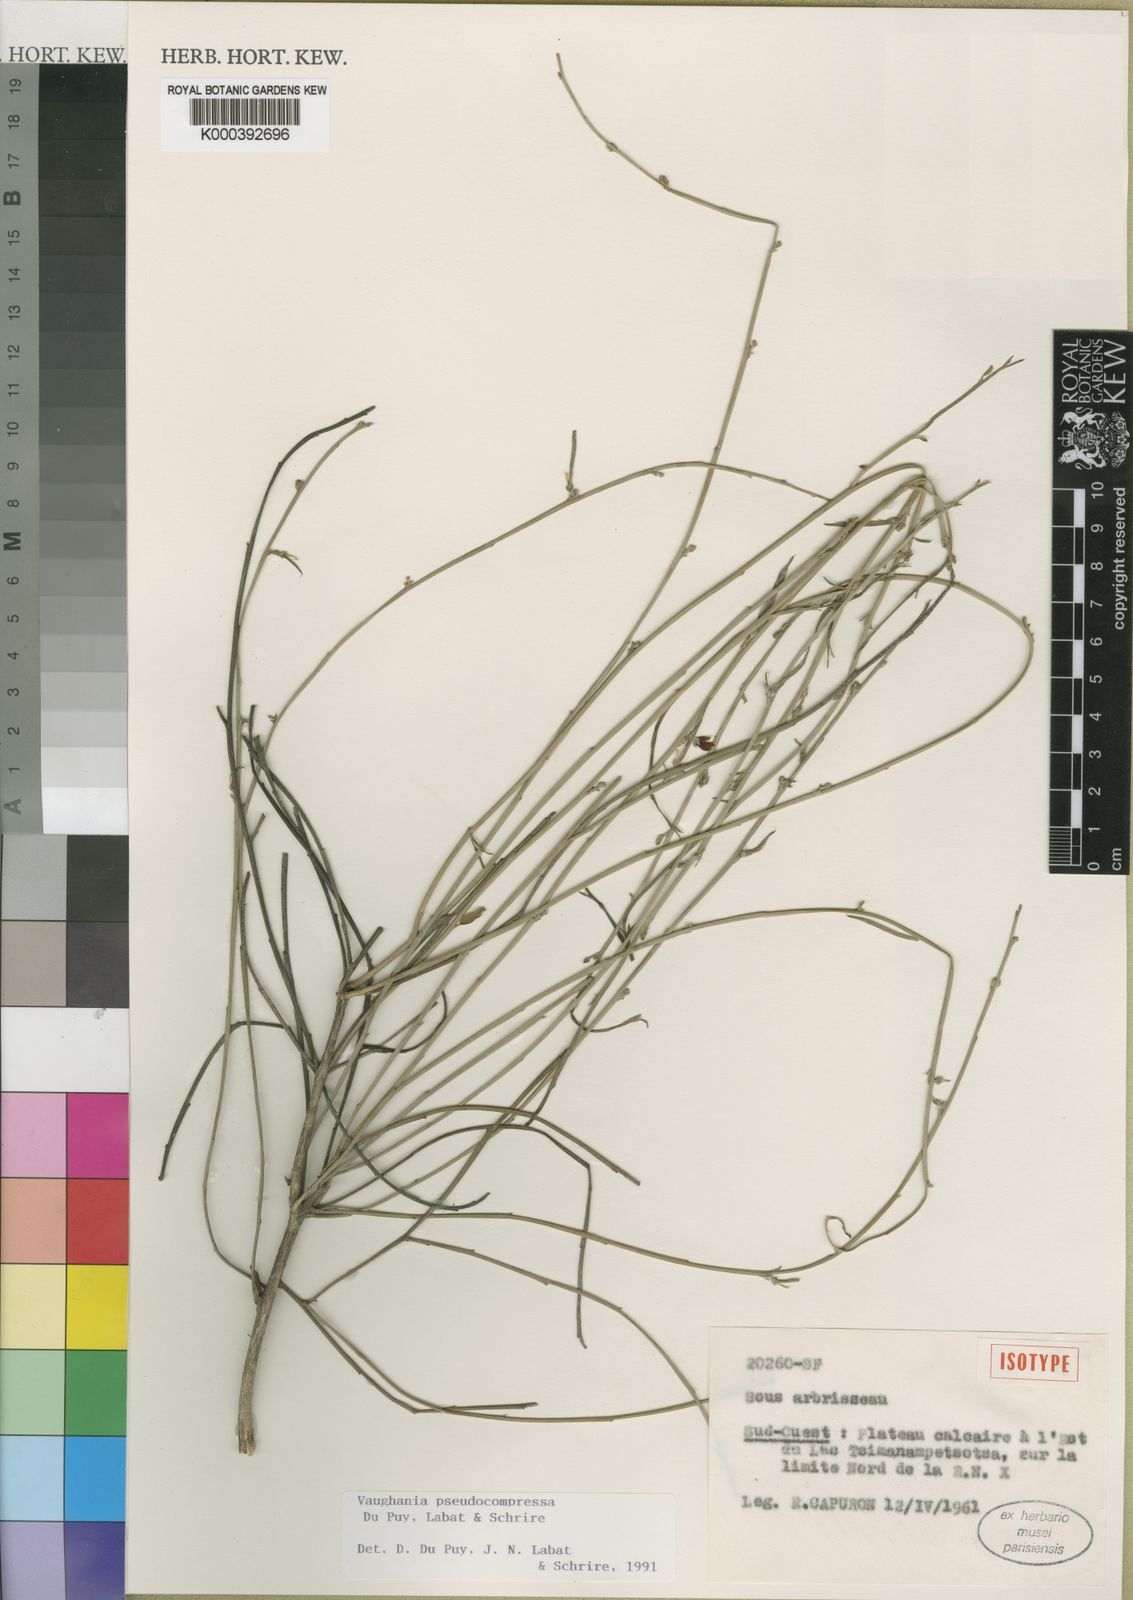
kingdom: Plantae
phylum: Tracheophyta
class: Magnoliopsida
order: Fabales
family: Fabaceae
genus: Indigofera
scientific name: Indigofera pseudocompressa
